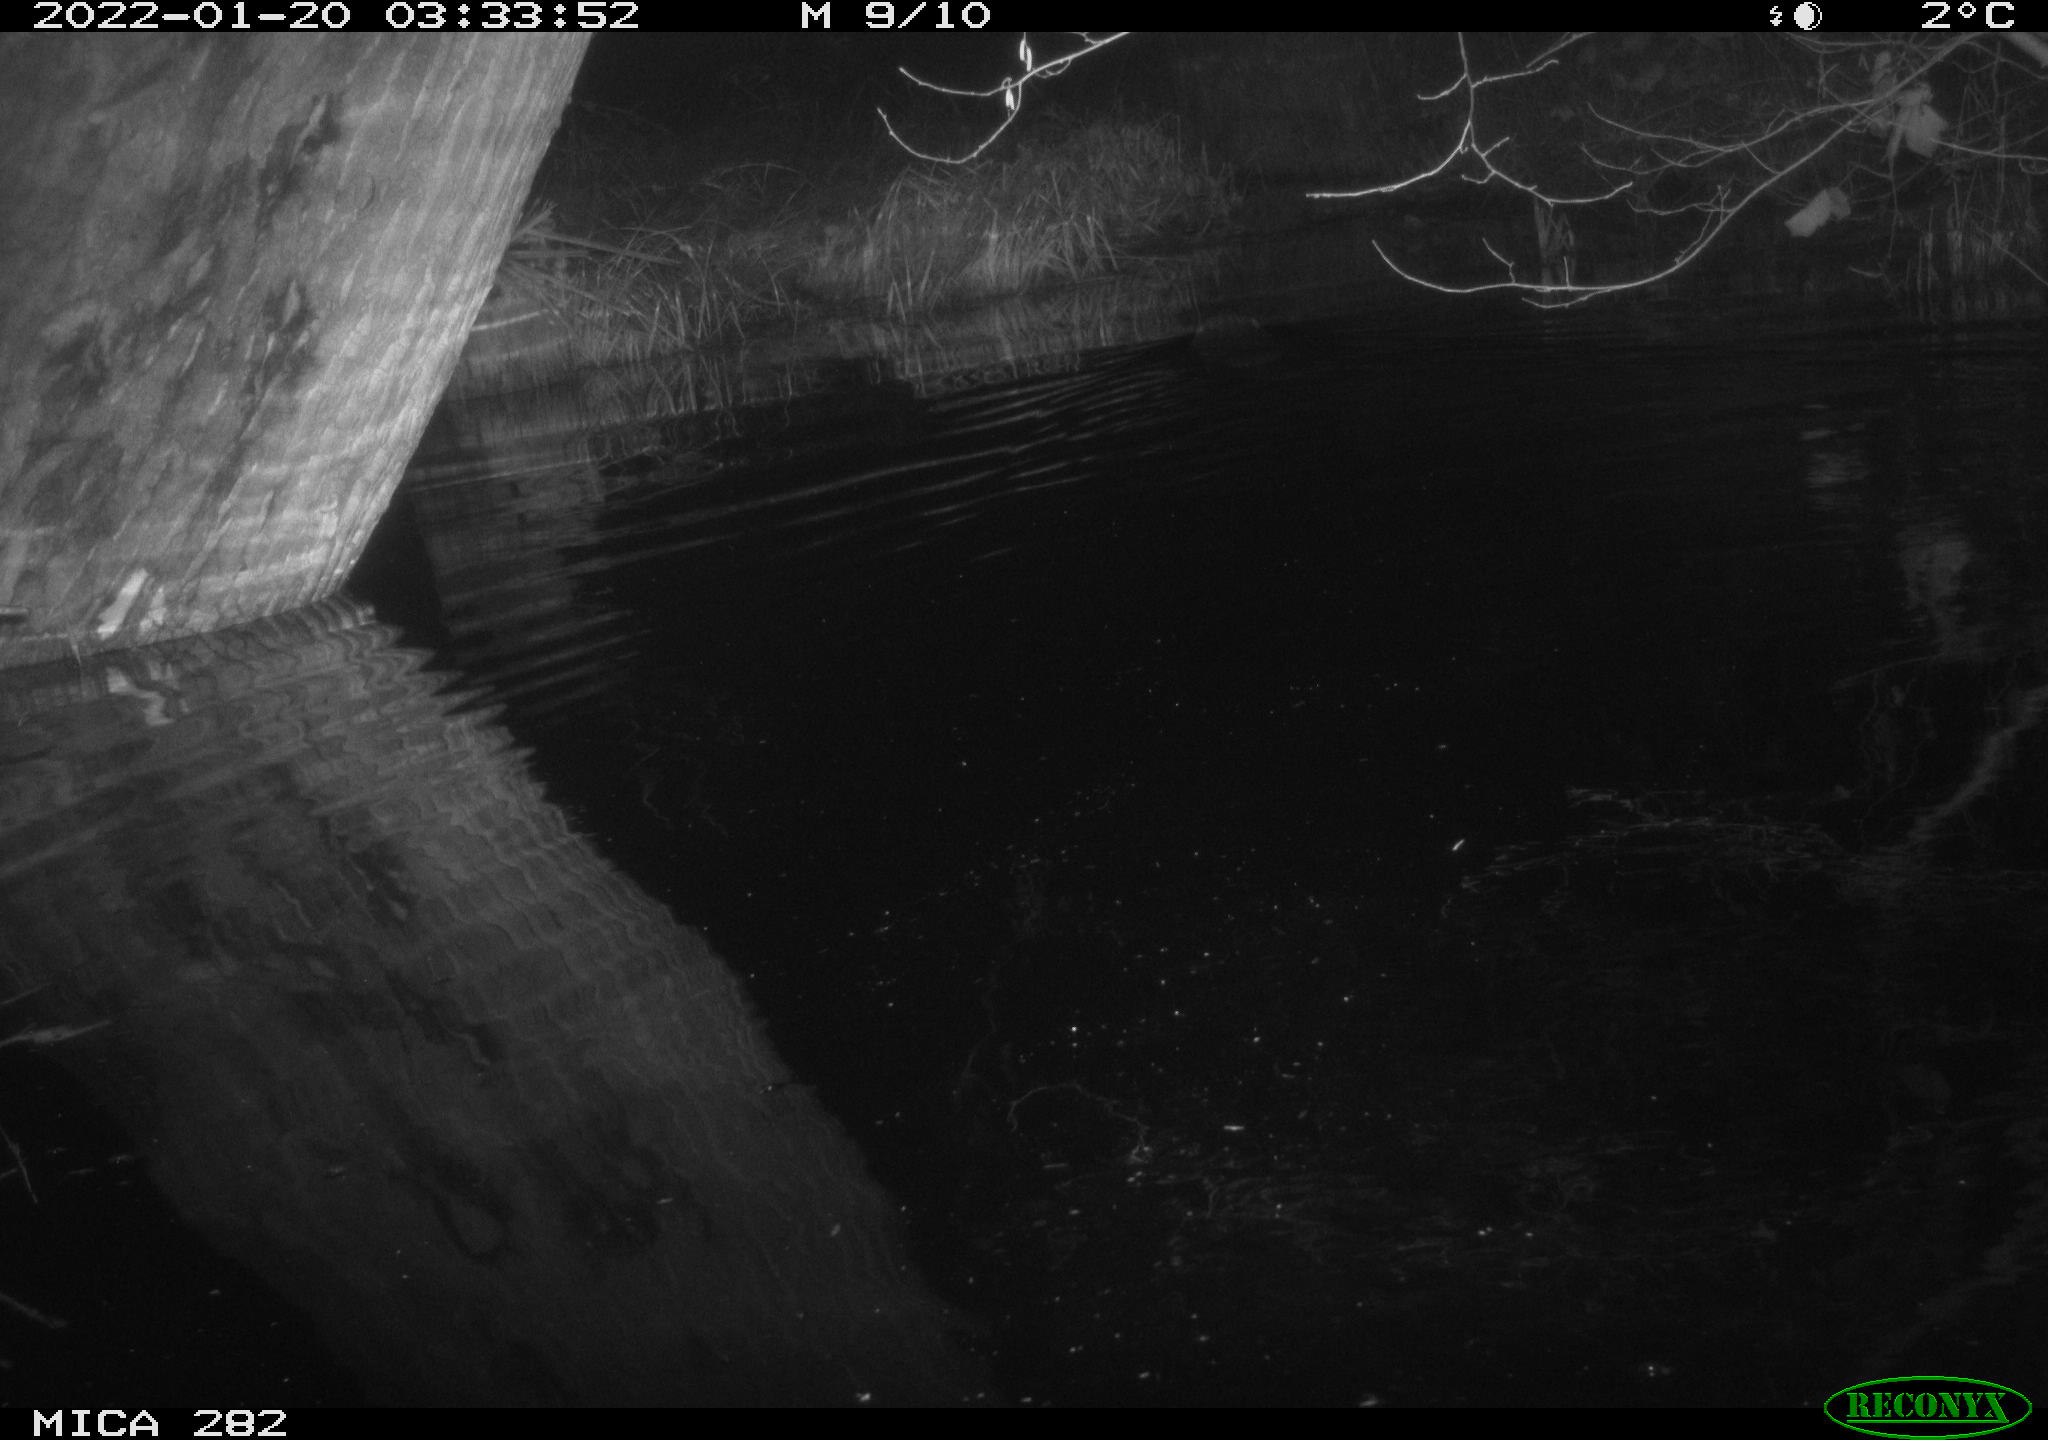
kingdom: Animalia
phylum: Chordata
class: Mammalia
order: Rodentia
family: Castoridae
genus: Castor
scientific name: Castor fiber
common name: Eurasian beaver
